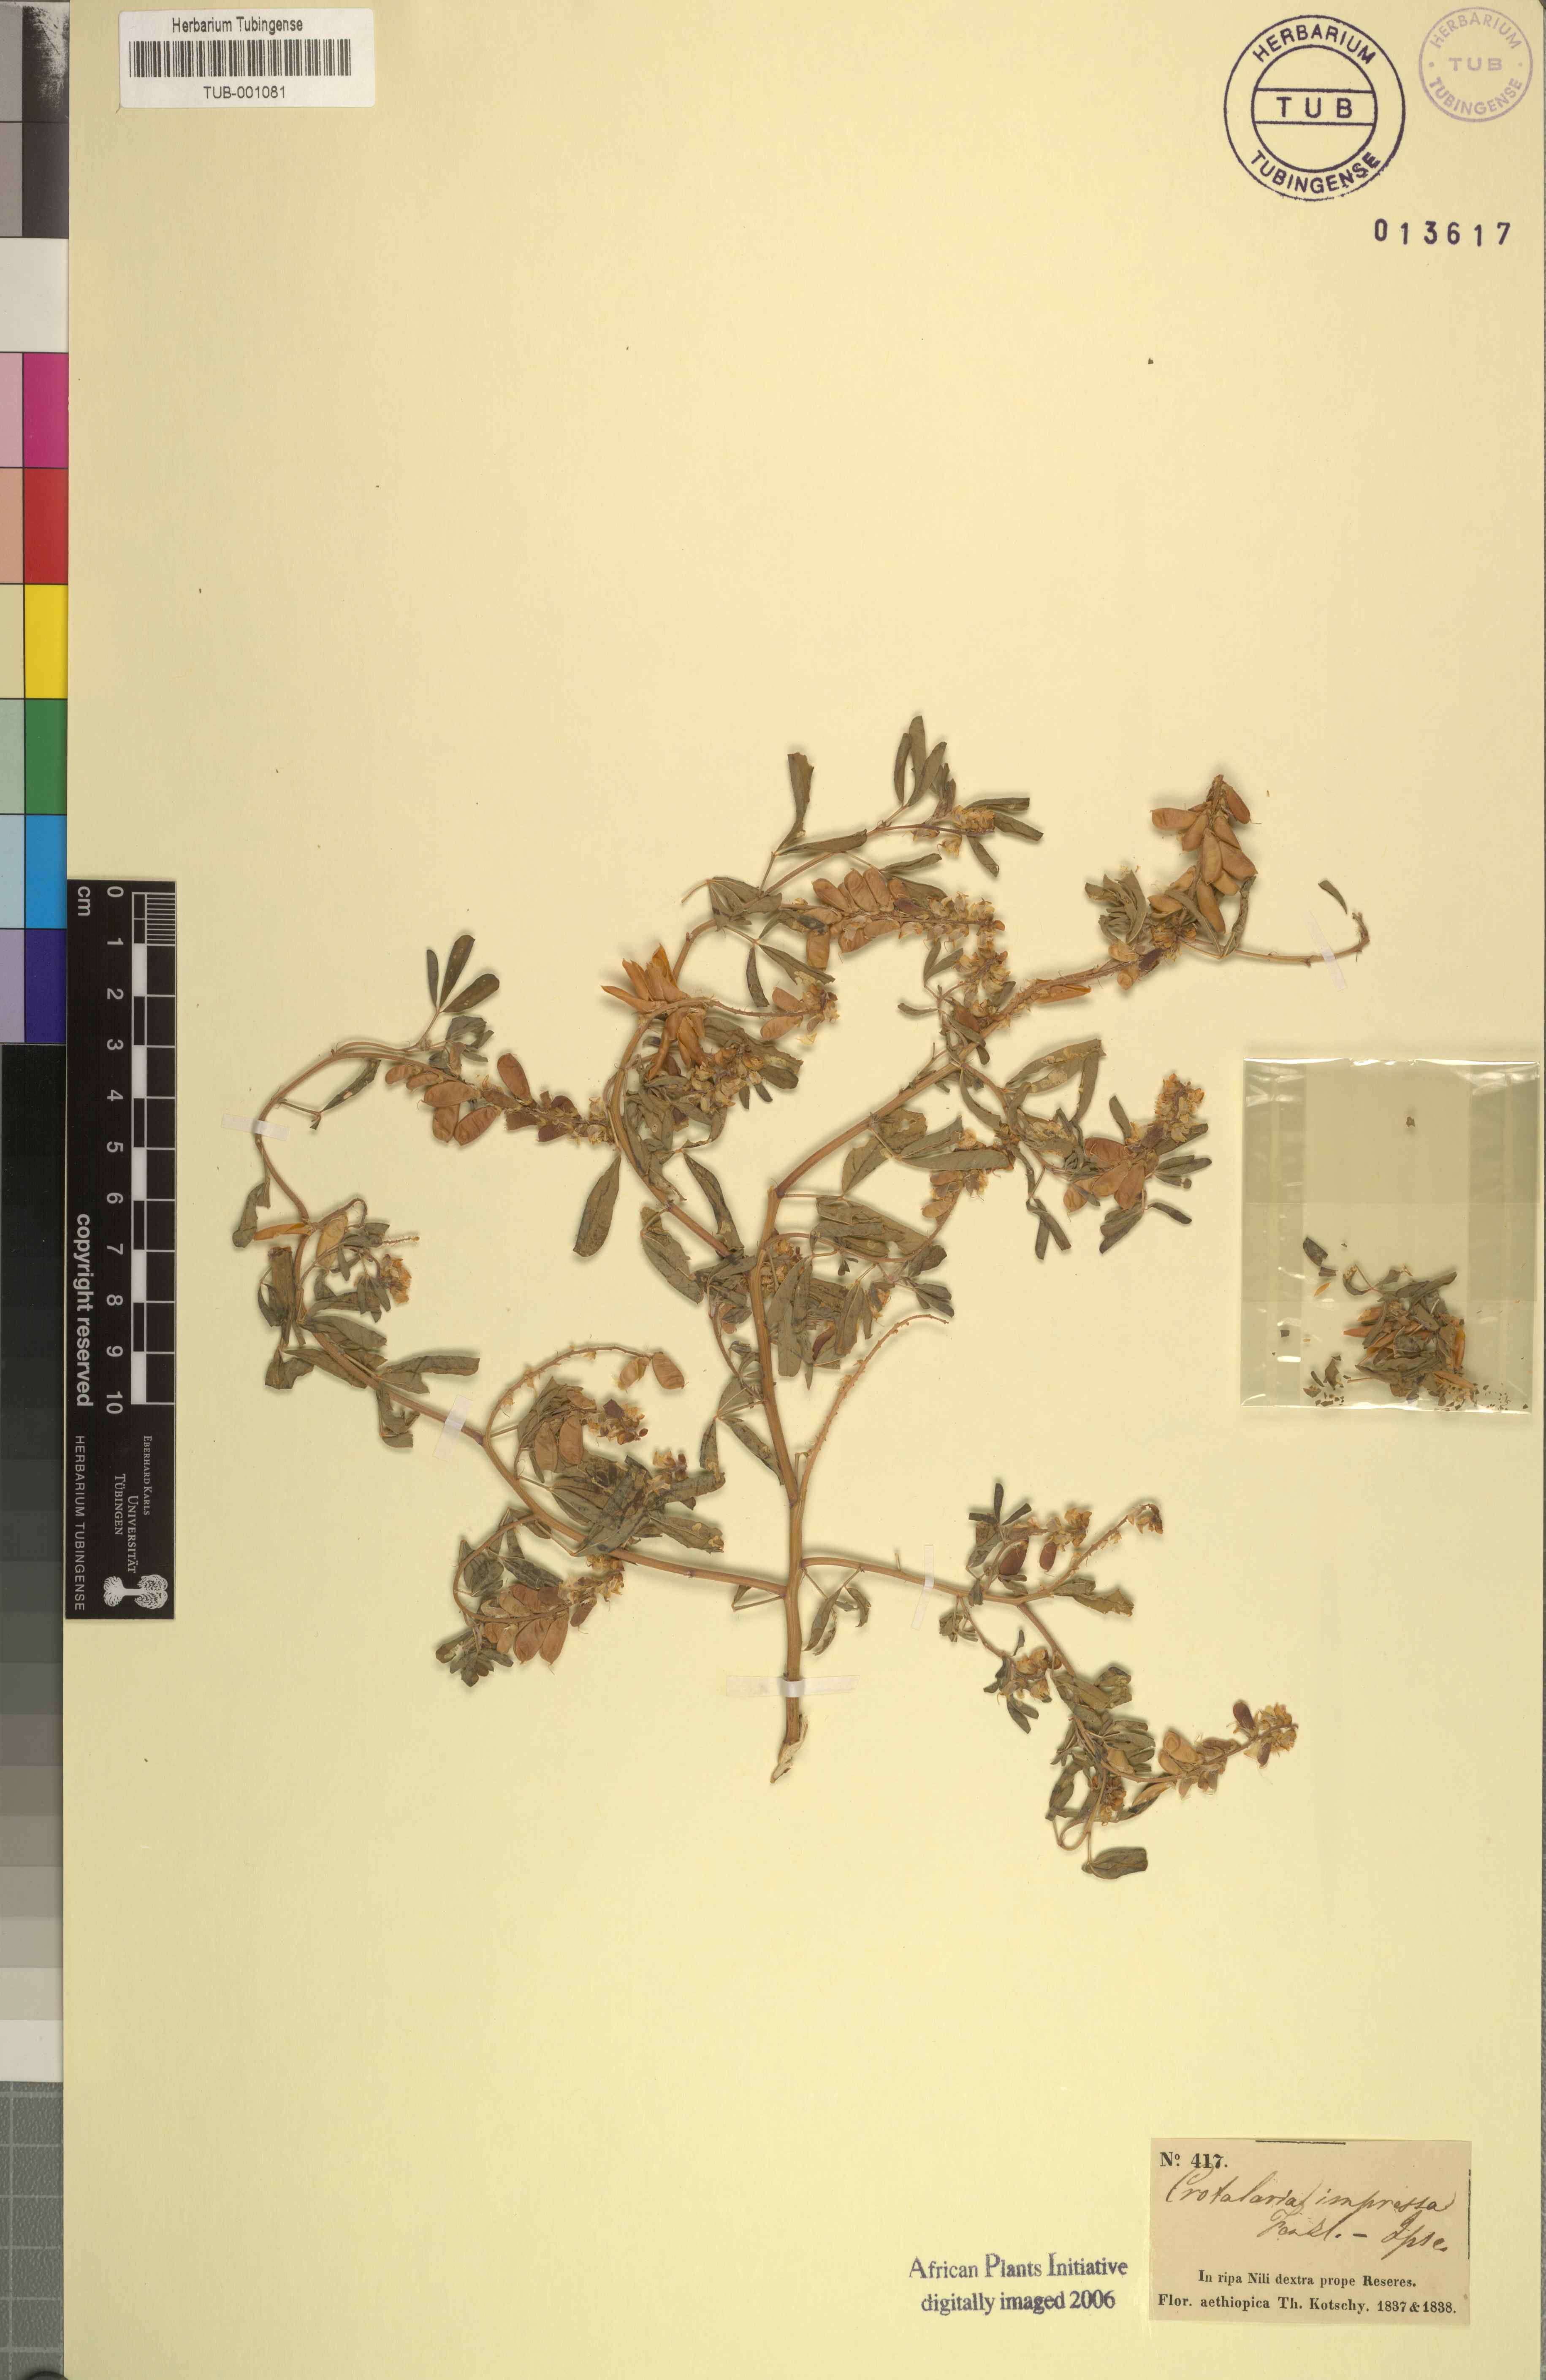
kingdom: Plantae
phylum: Tracheophyta
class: Magnoliopsida
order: Fabales
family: Fabaceae
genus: Crotalaria
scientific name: Crotalaria impressa
